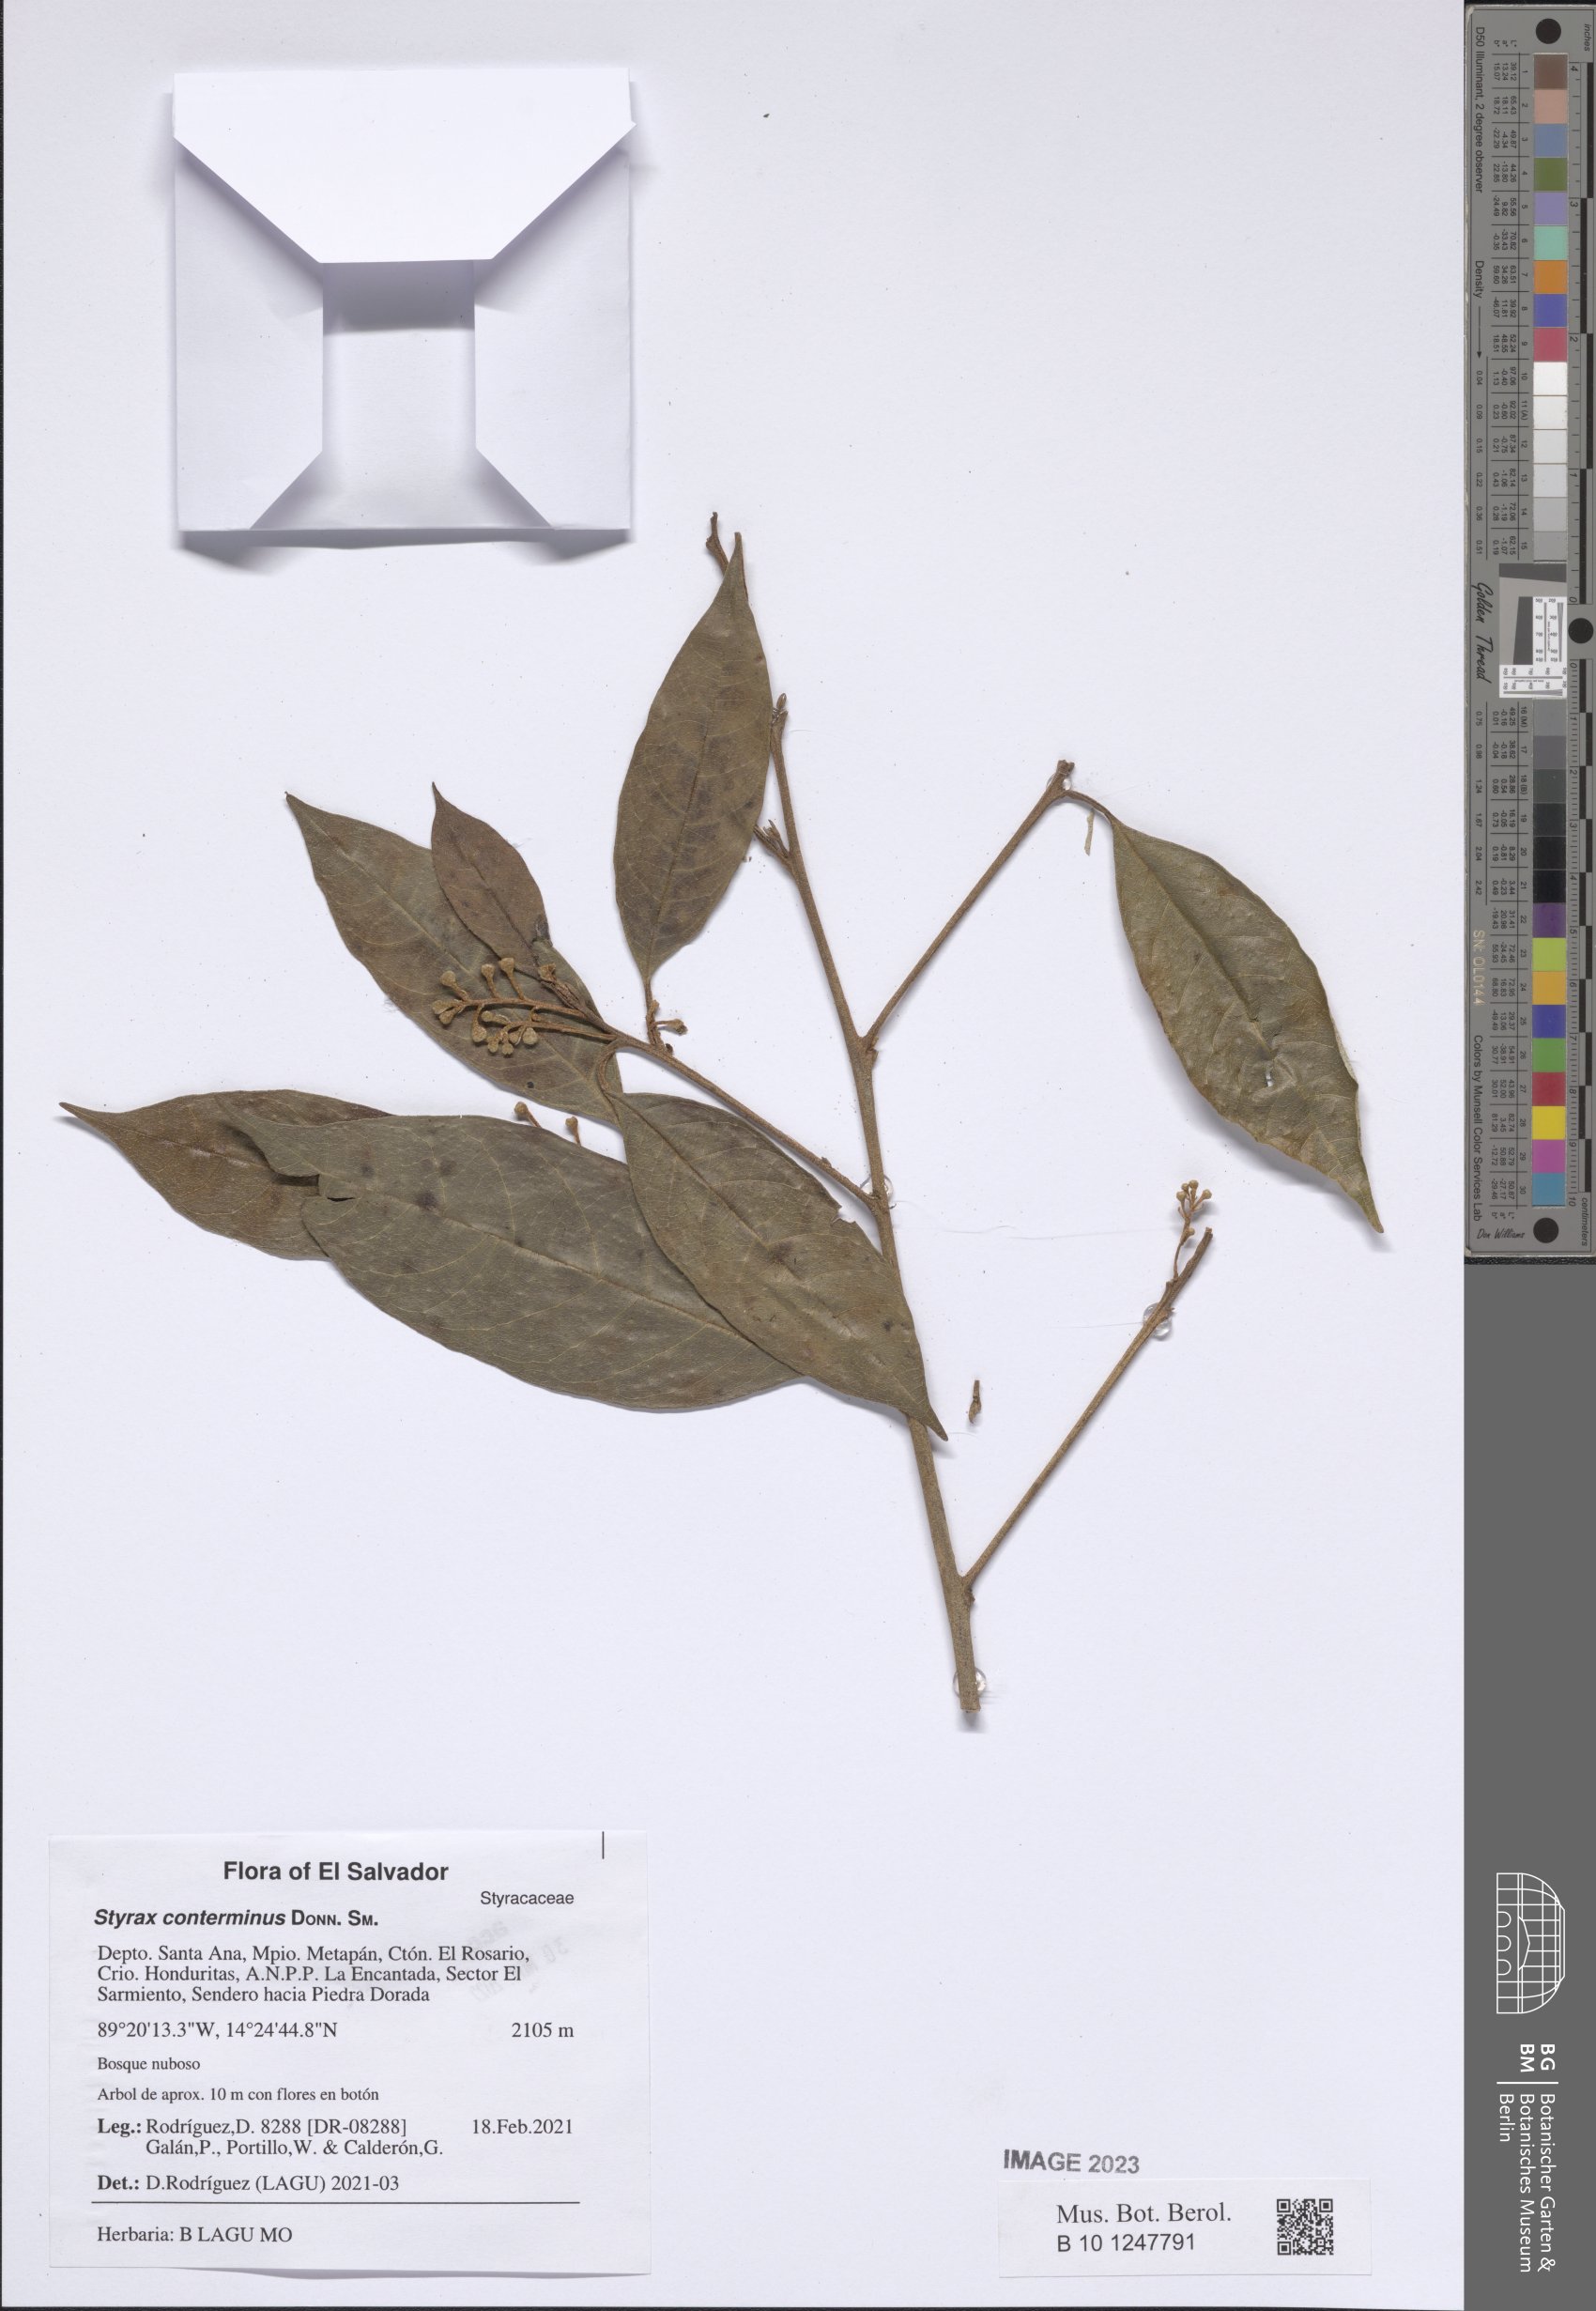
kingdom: Plantae
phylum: Tracheophyta
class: Magnoliopsida
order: Ericales
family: Styracaceae
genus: Styrax
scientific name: Styrax conterminus
